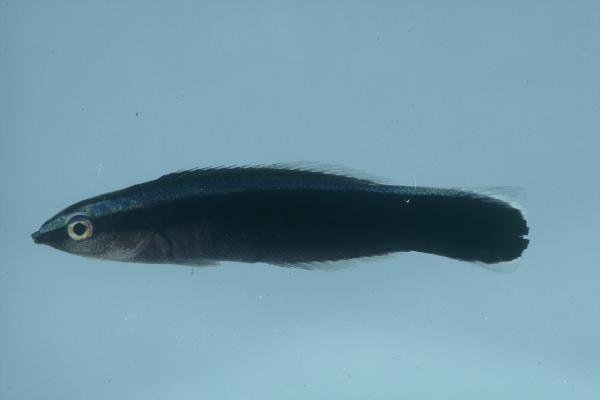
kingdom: Animalia
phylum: Chordata
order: Perciformes
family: Labridae
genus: Labroides
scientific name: Labroides dimidiatus
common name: Blue diesel wrasse
